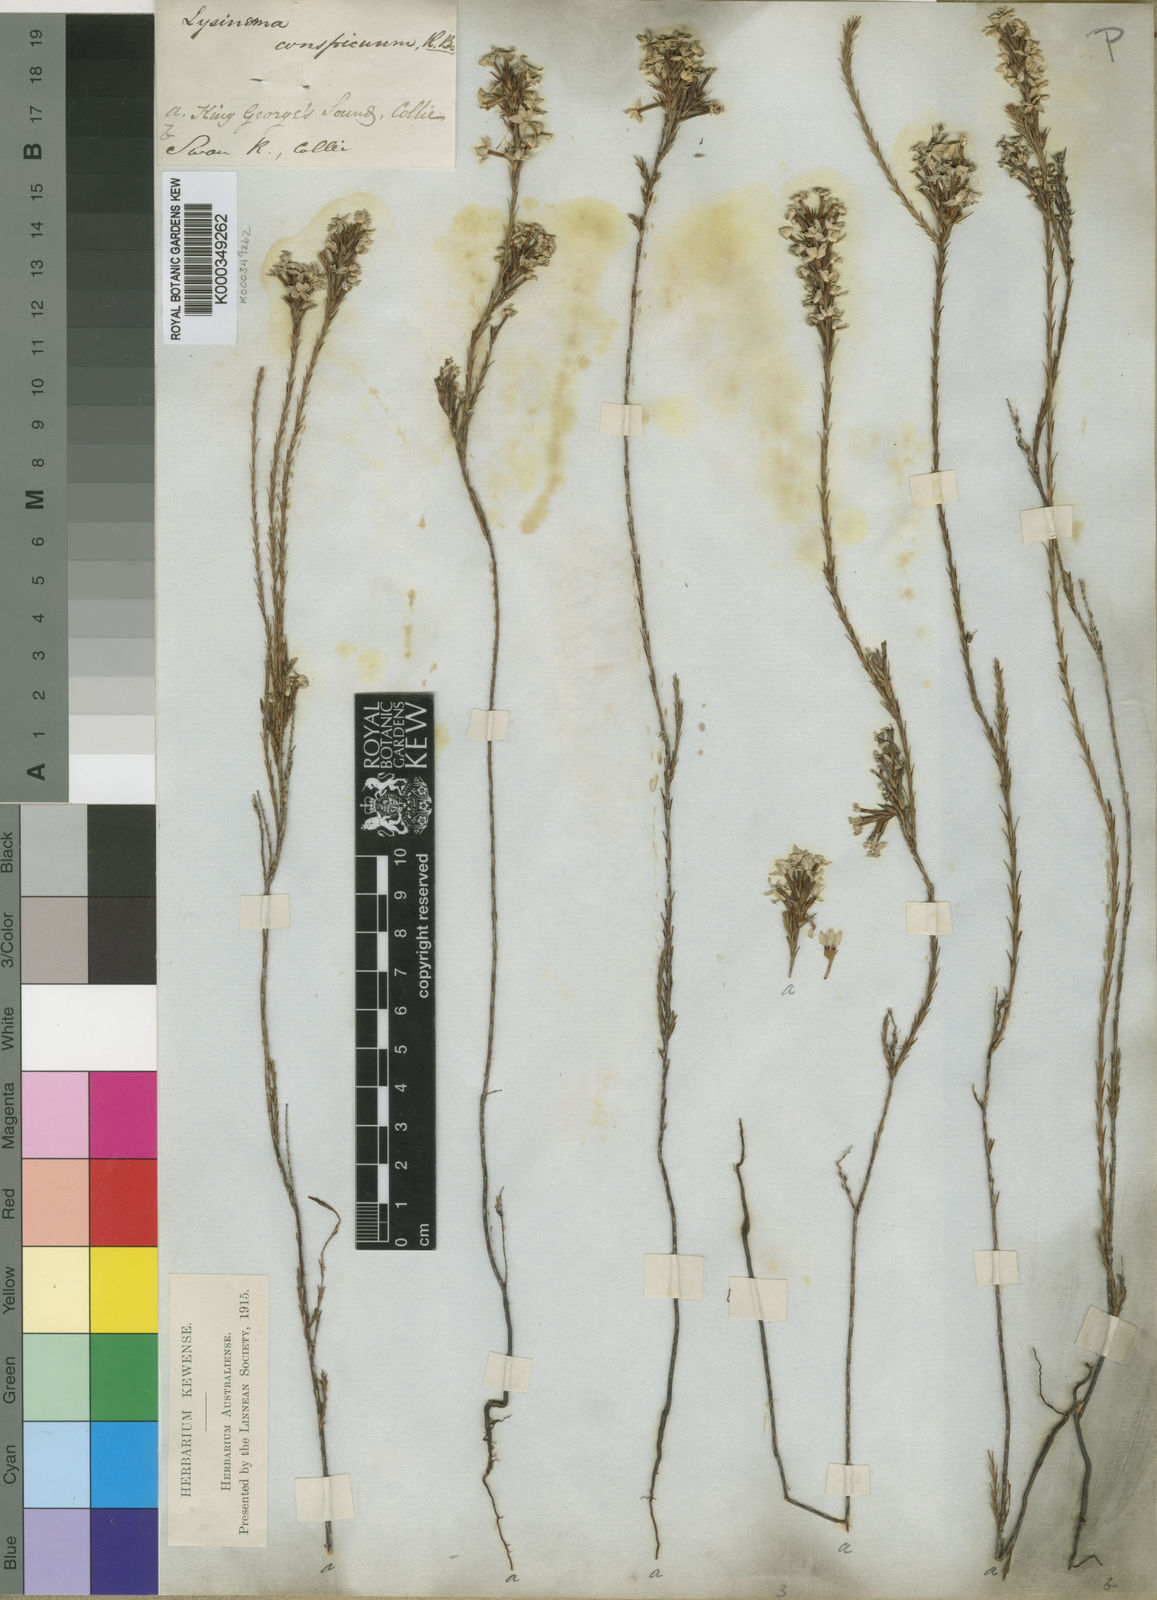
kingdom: Plantae
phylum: Tracheophyta
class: Magnoliopsida
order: Ericales
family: Ericaceae
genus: Lysinema
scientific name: Lysinema conspicuum
